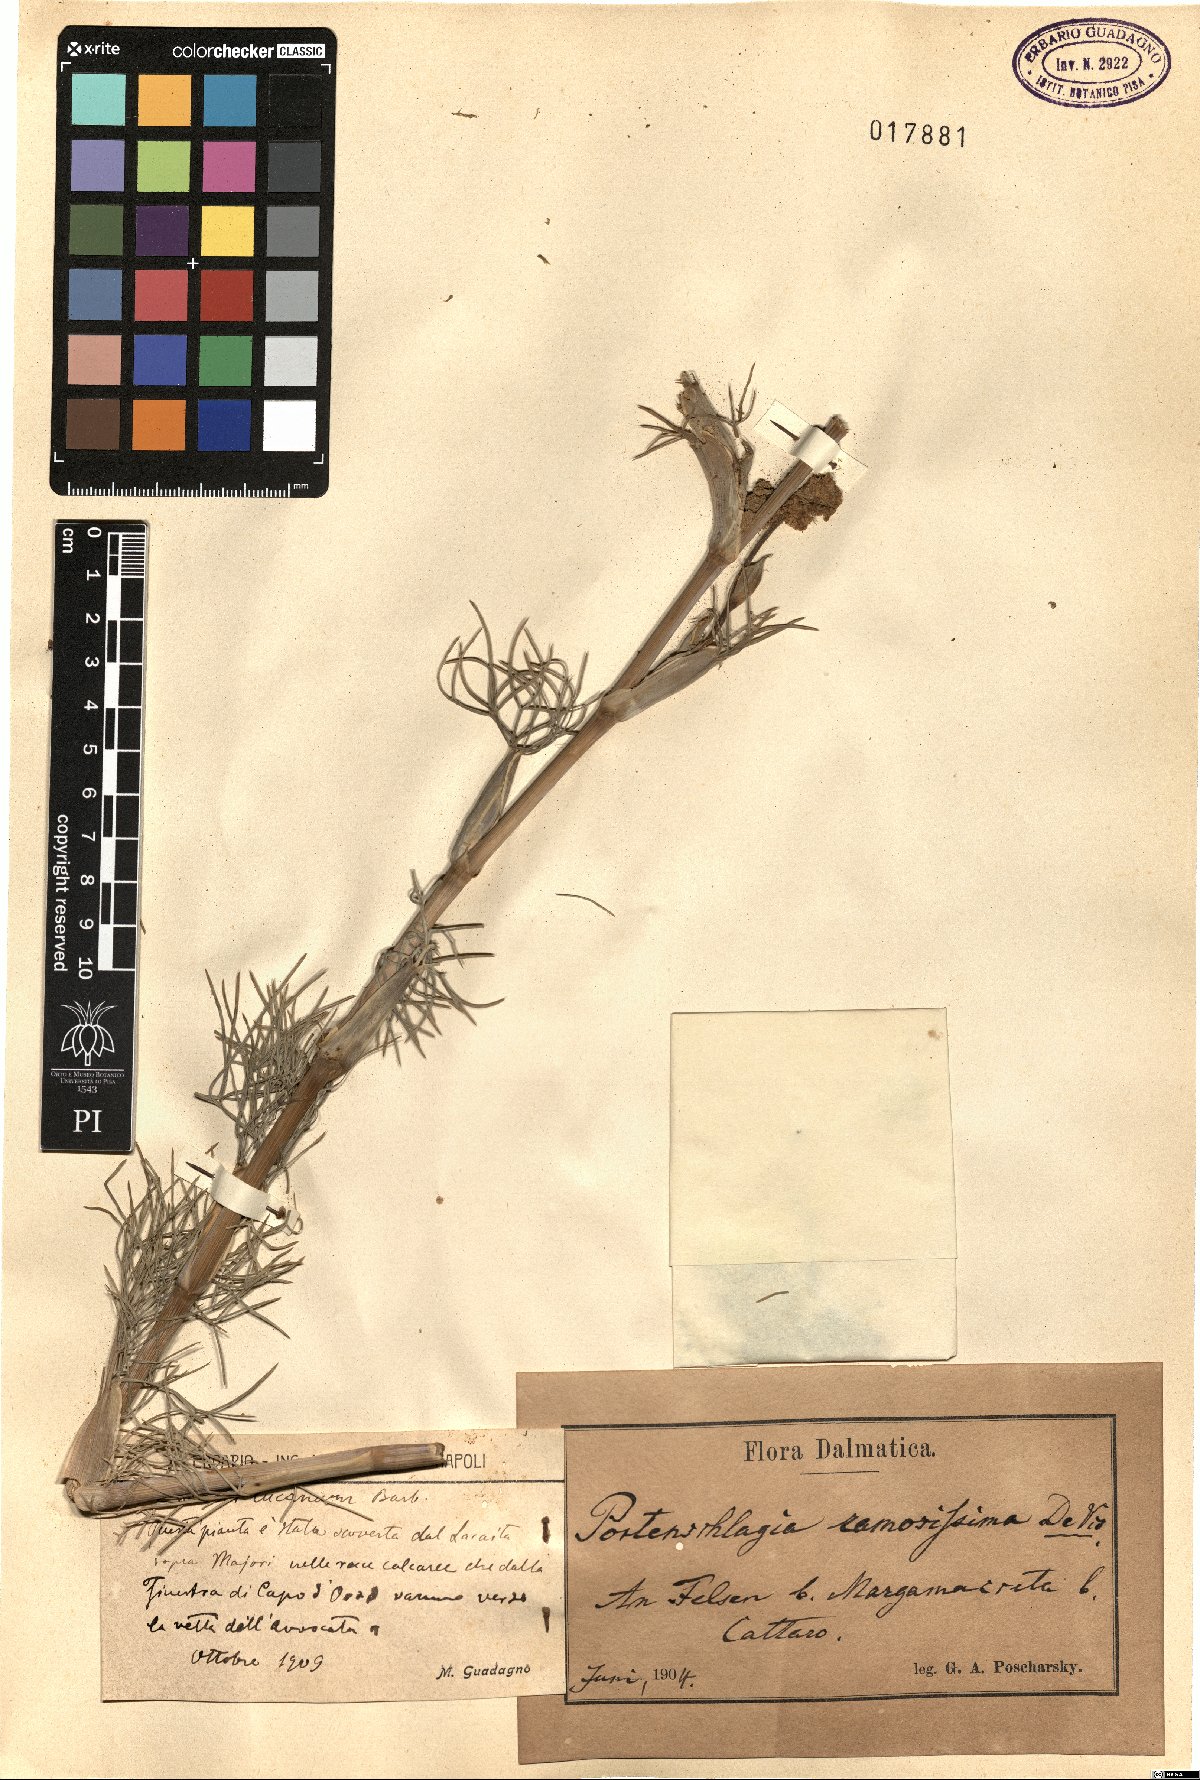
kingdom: Plantae
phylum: Tracheophyta
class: Magnoliopsida
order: Apiales
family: Apiaceae
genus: Athamanta
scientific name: Athamanta ramosissima
